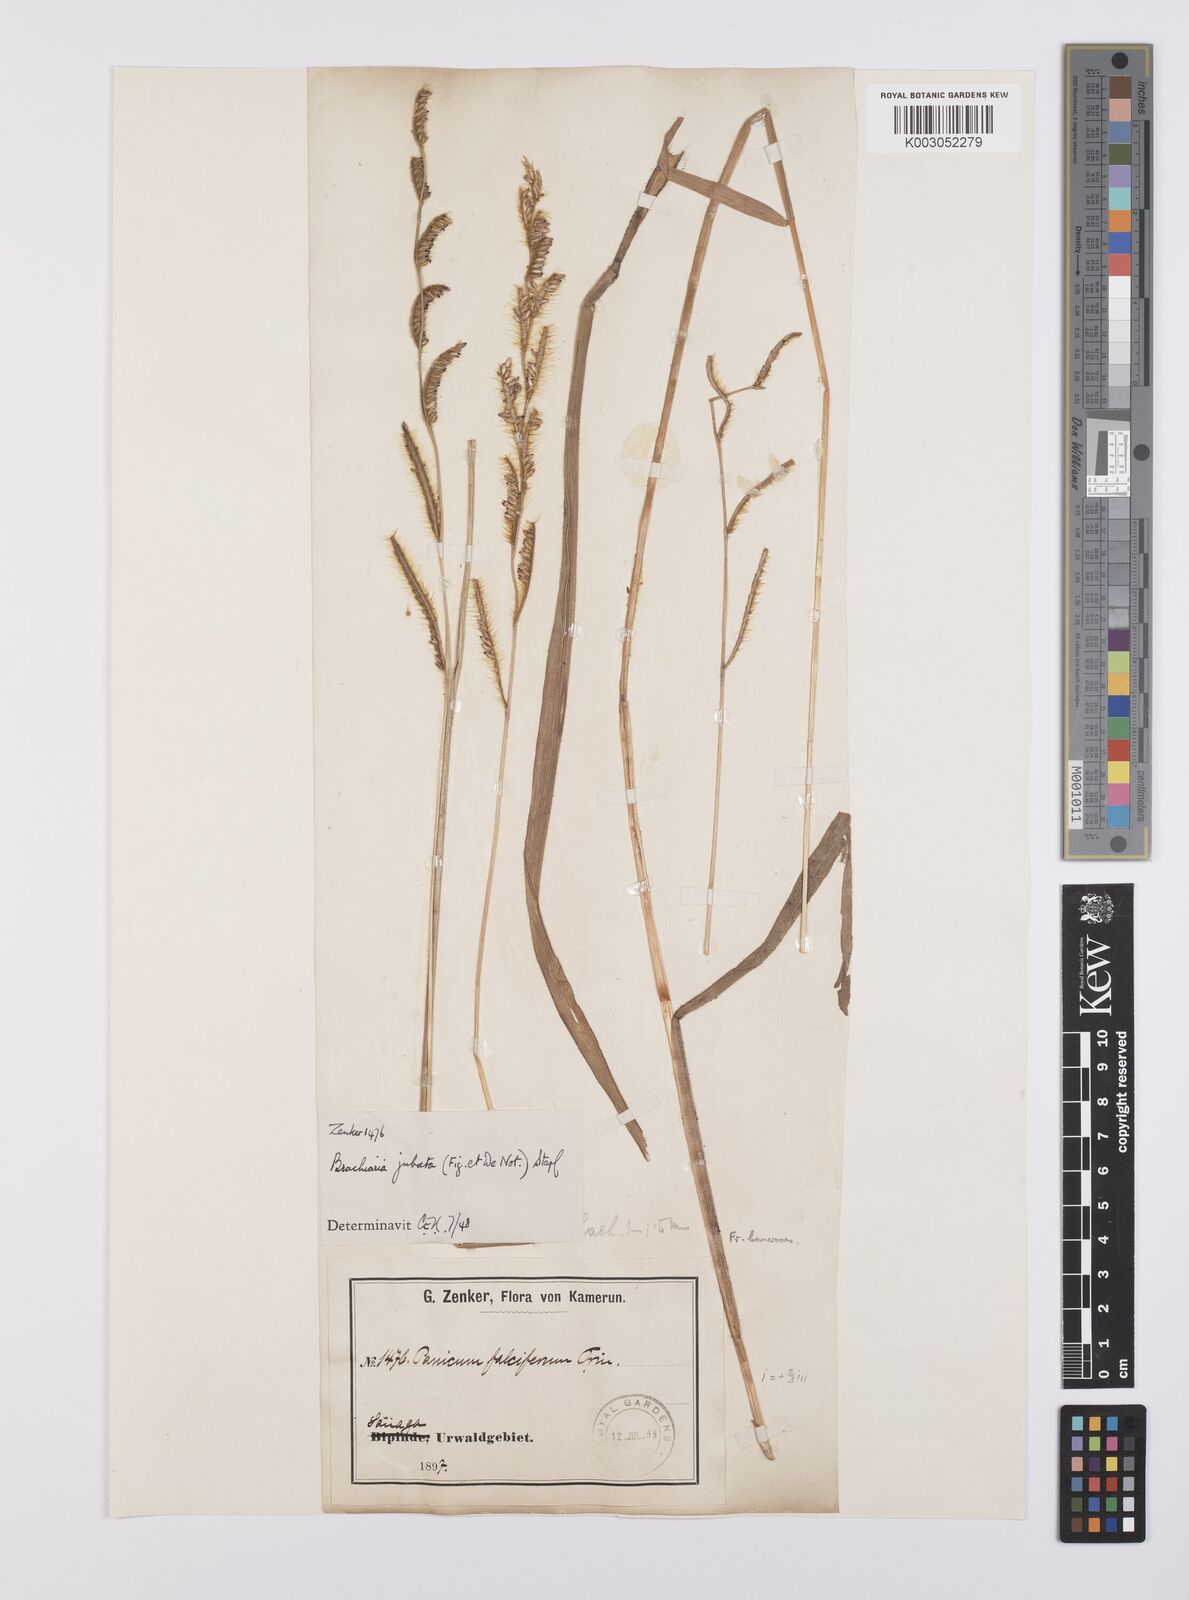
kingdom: Plantae
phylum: Tracheophyta
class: Liliopsida
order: Poales
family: Poaceae
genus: Urochloa
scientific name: Urochloa jubata
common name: Buffalograss
